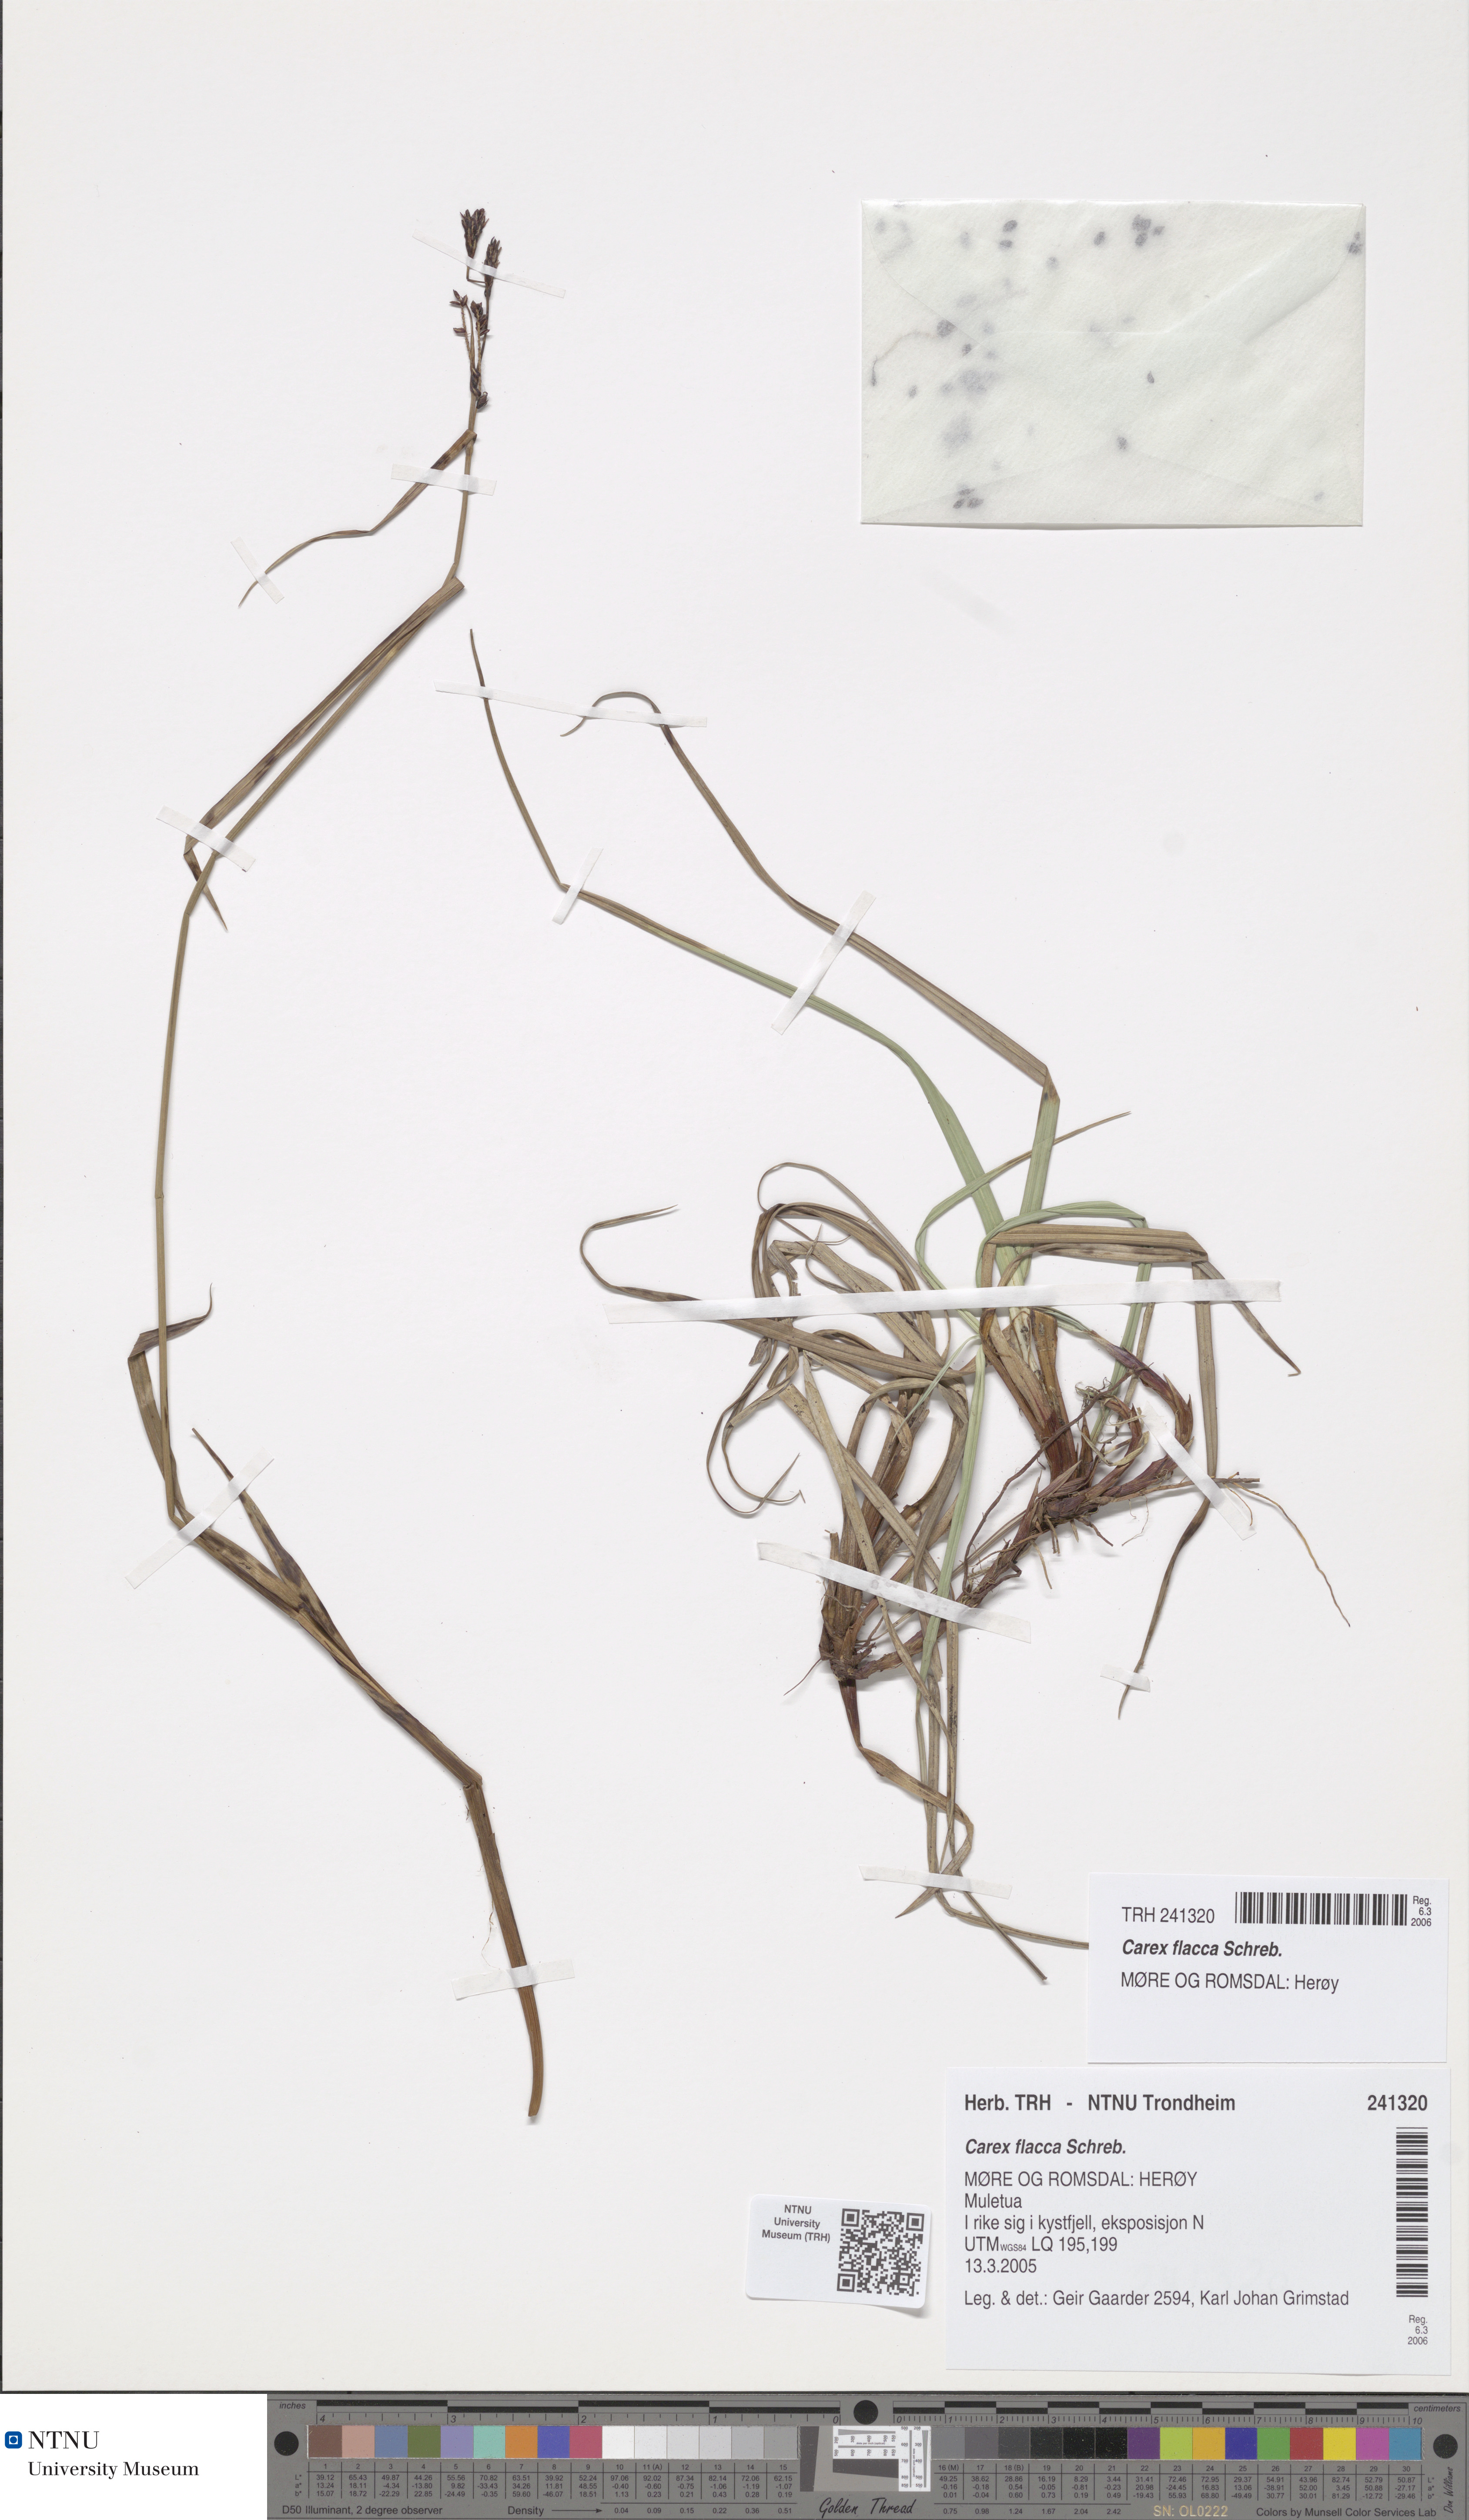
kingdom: Plantae
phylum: Tracheophyta
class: Liliopsida
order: Poales
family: Cyperaceae
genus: Carex
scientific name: Carex flacca
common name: Glaucous sedge
